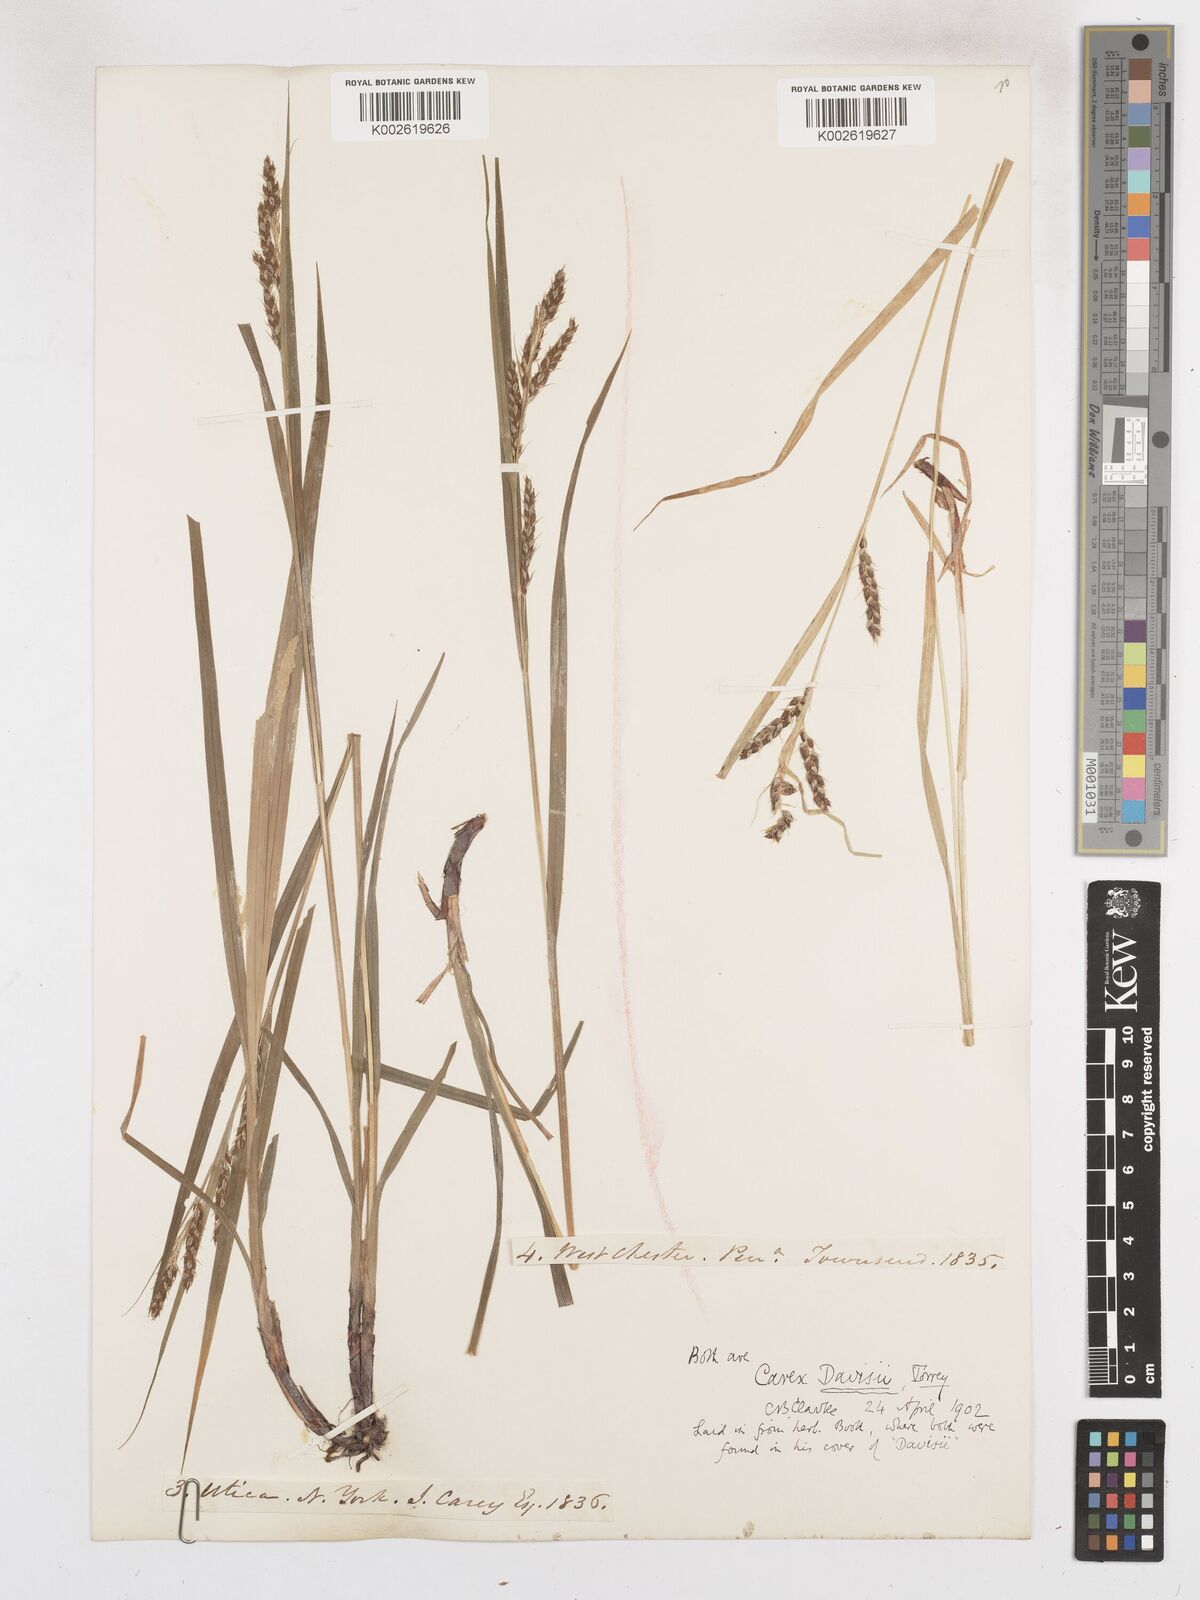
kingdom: Plantae
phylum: Tracheophyta
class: Liliopsida
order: Poales
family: Cyperaceae
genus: Carex
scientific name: Carex davisii
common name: Davis' sedge
